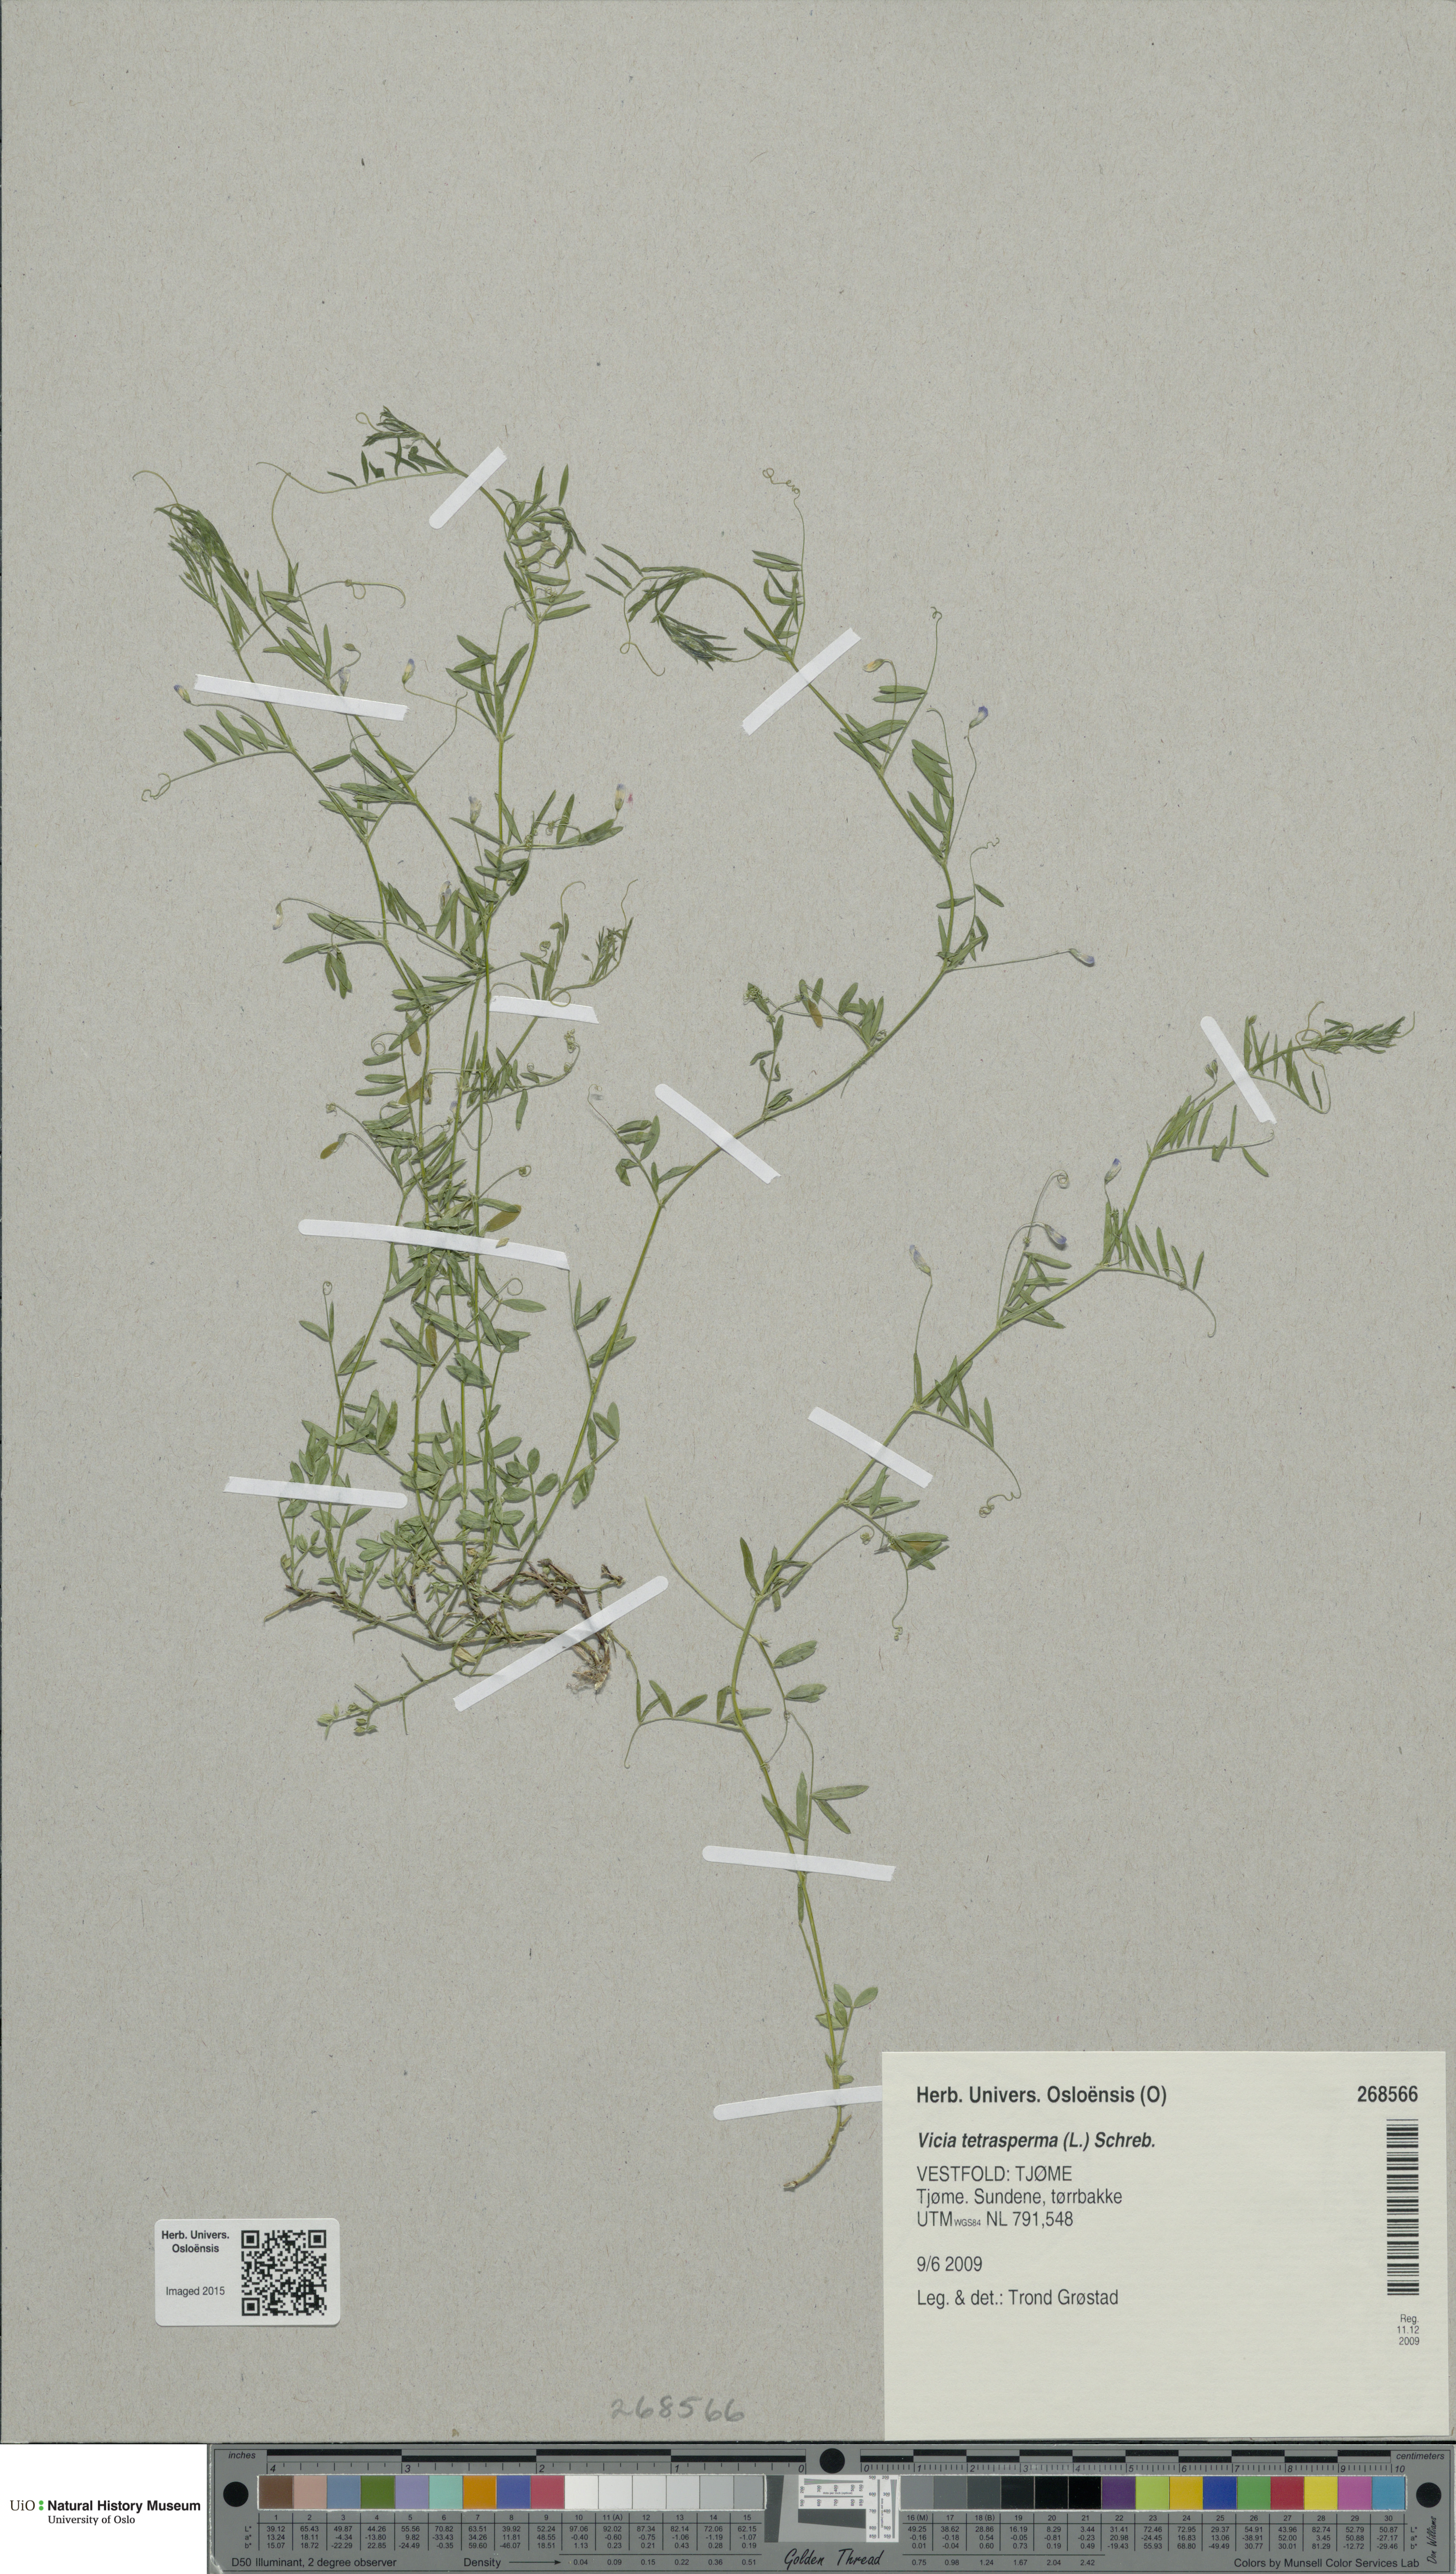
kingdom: Plantae
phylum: Tracheophyta
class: Magnoliopsida
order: Fabales
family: Fabaceae
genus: Vicia
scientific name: Vicia tetrasperma
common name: Smooth tare
